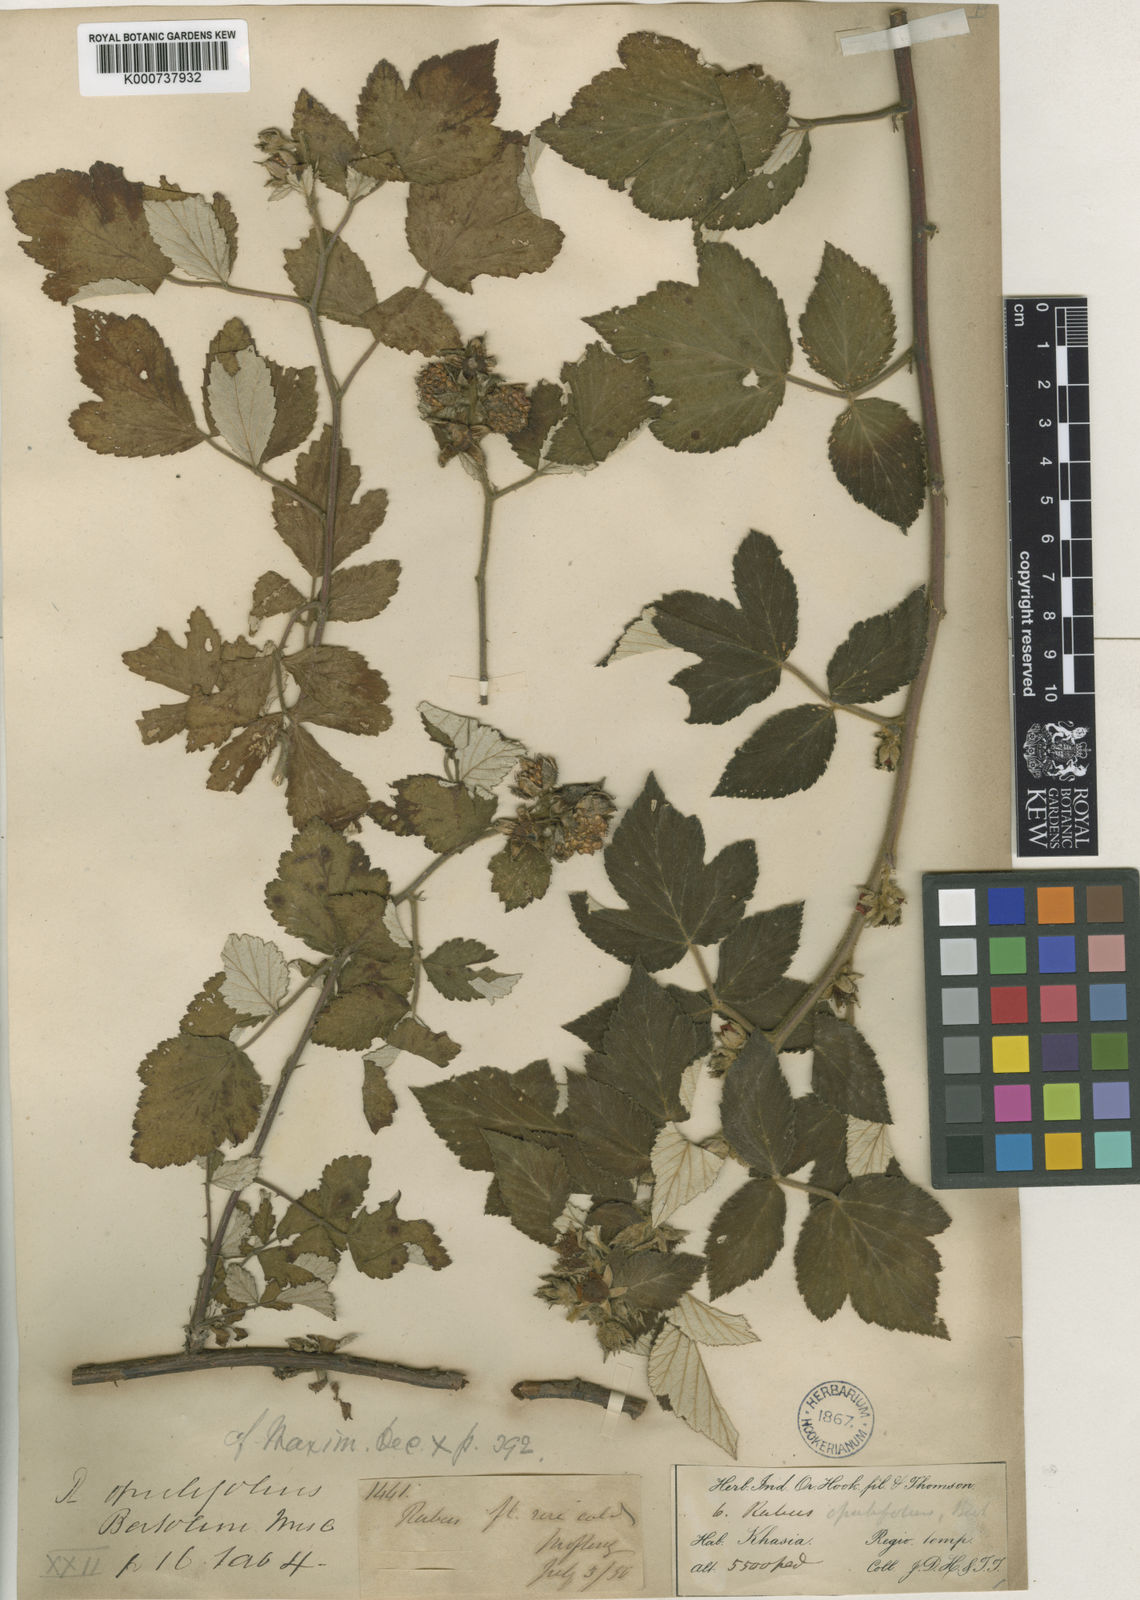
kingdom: Plantae
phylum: Tracheophyta
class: Magnoliopsida
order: Rosales
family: Rosaceae
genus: Rubus
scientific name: Rubus opulifolius
